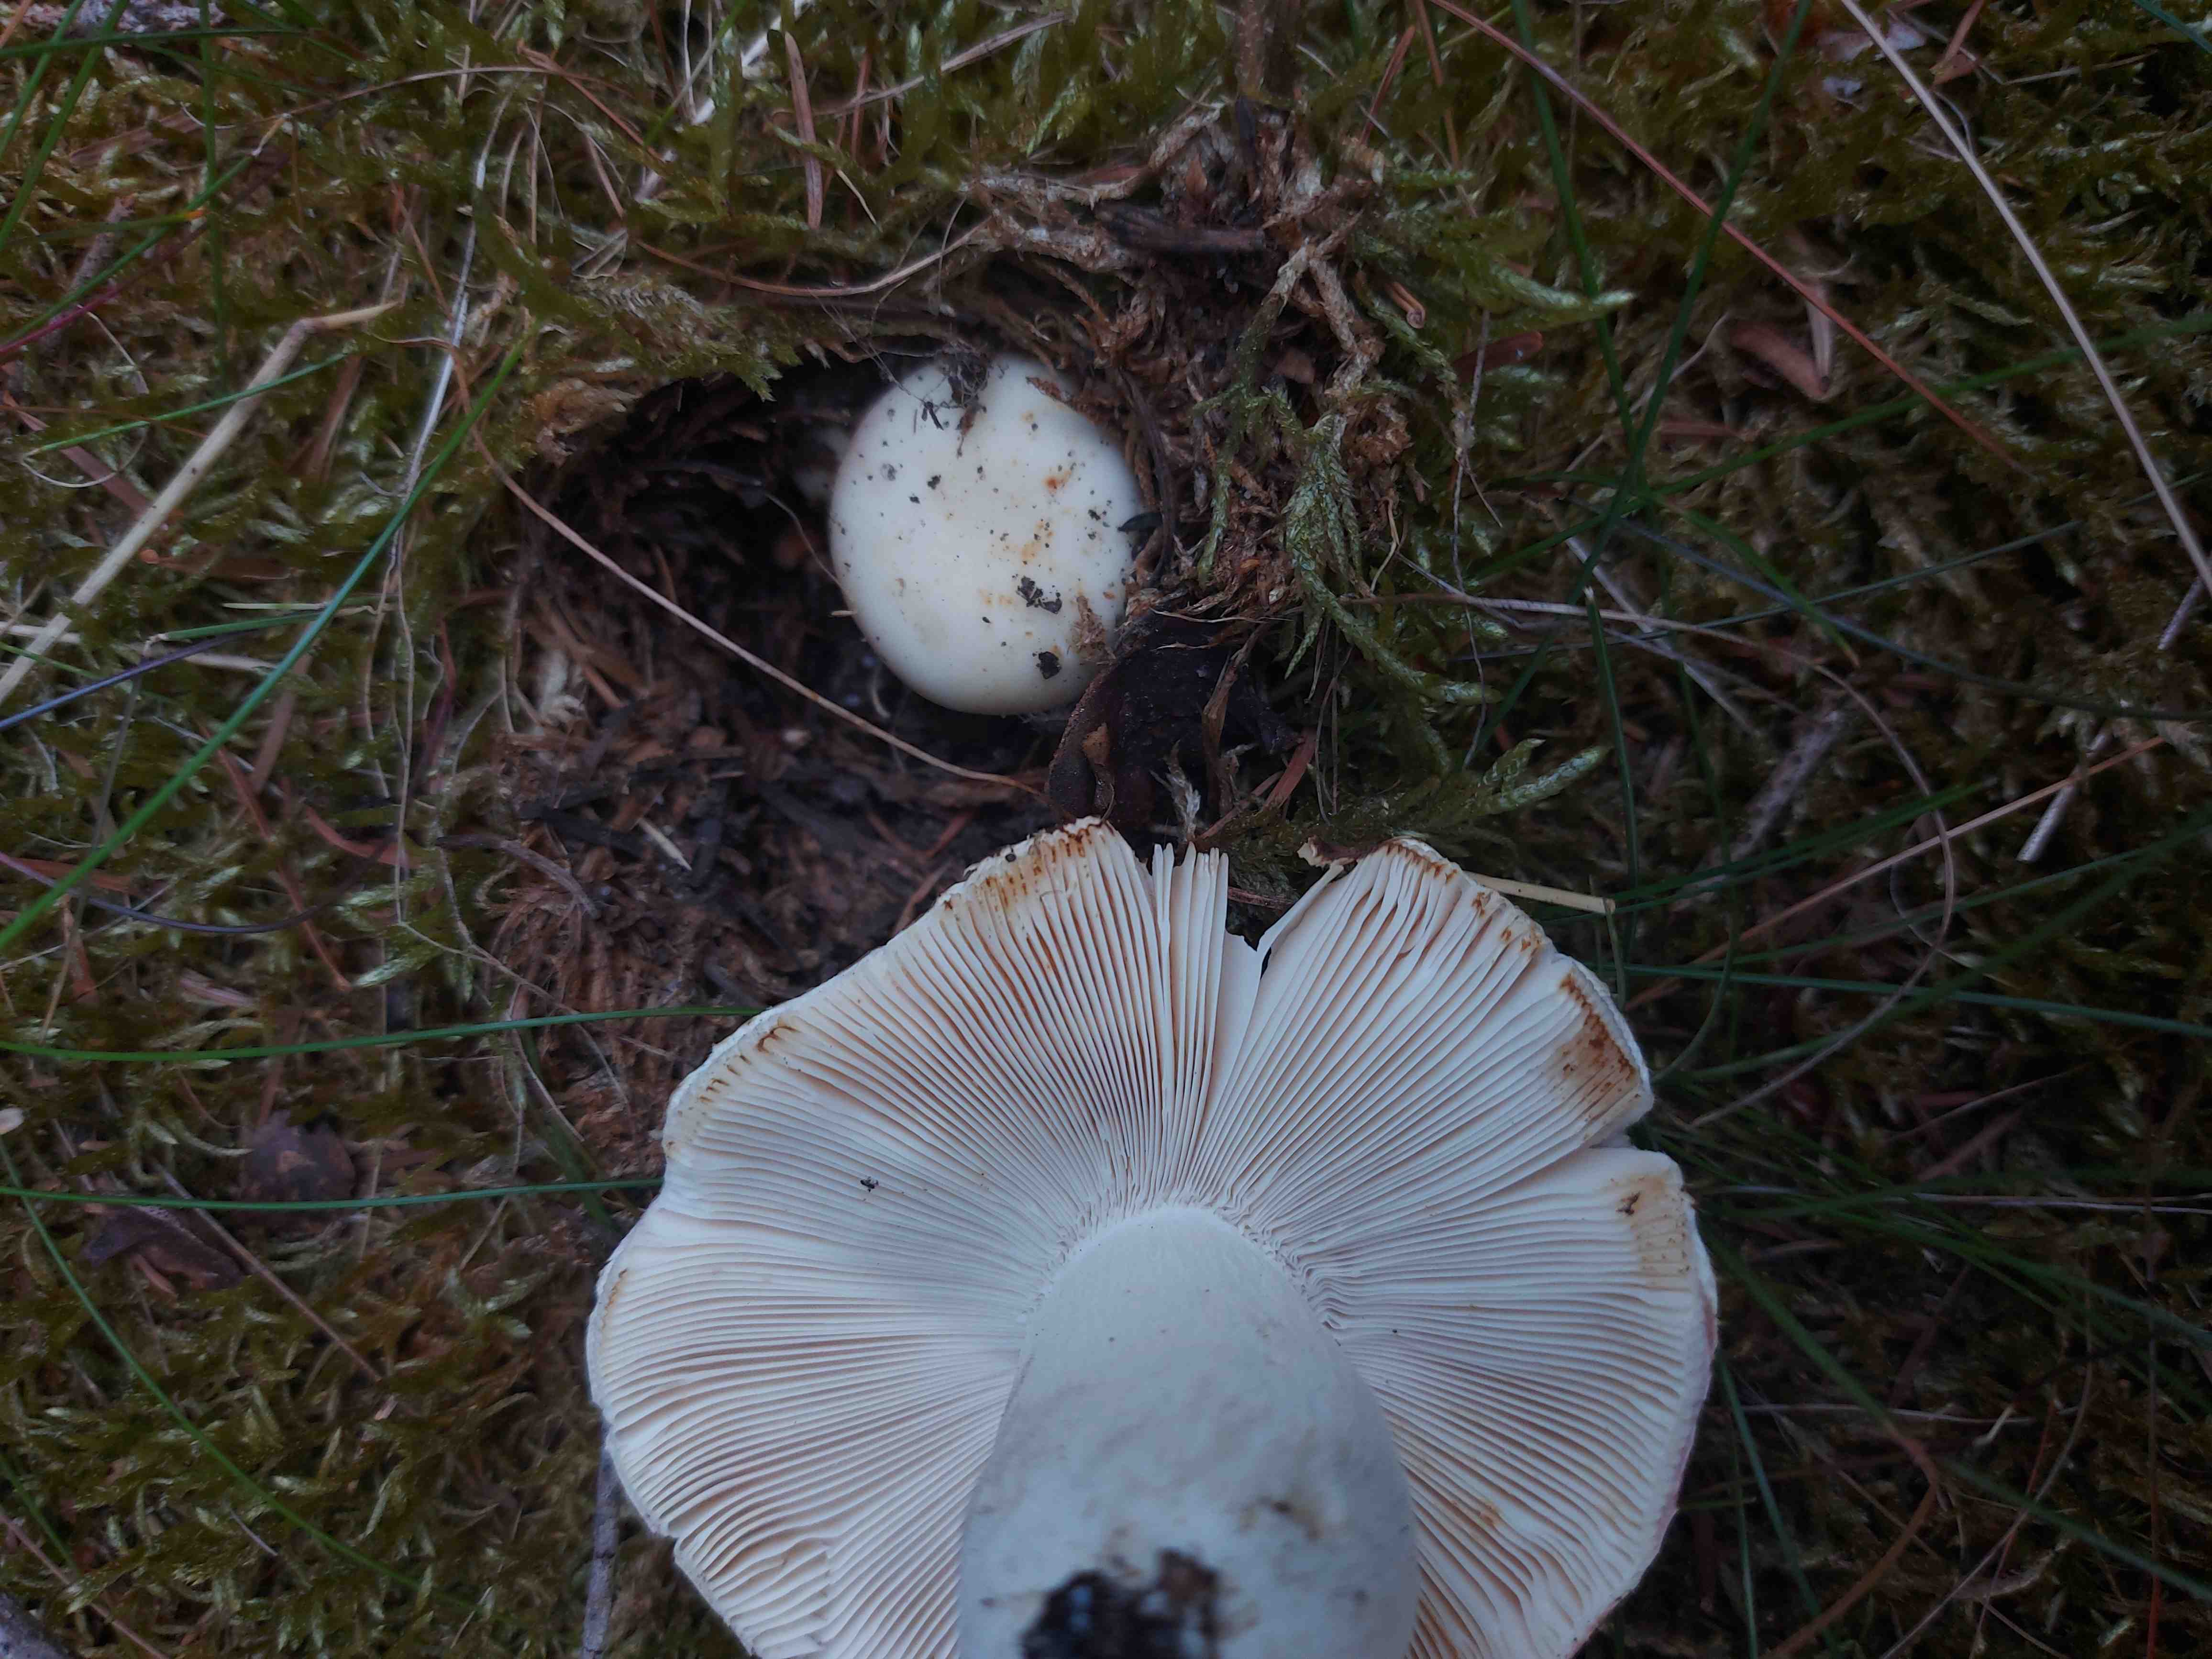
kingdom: Fungi
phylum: Basidiomycota
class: Agaricomycetes
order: Russulales
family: Russulaceae
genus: Russula
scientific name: Russula vesca
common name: spiselig skørhat
